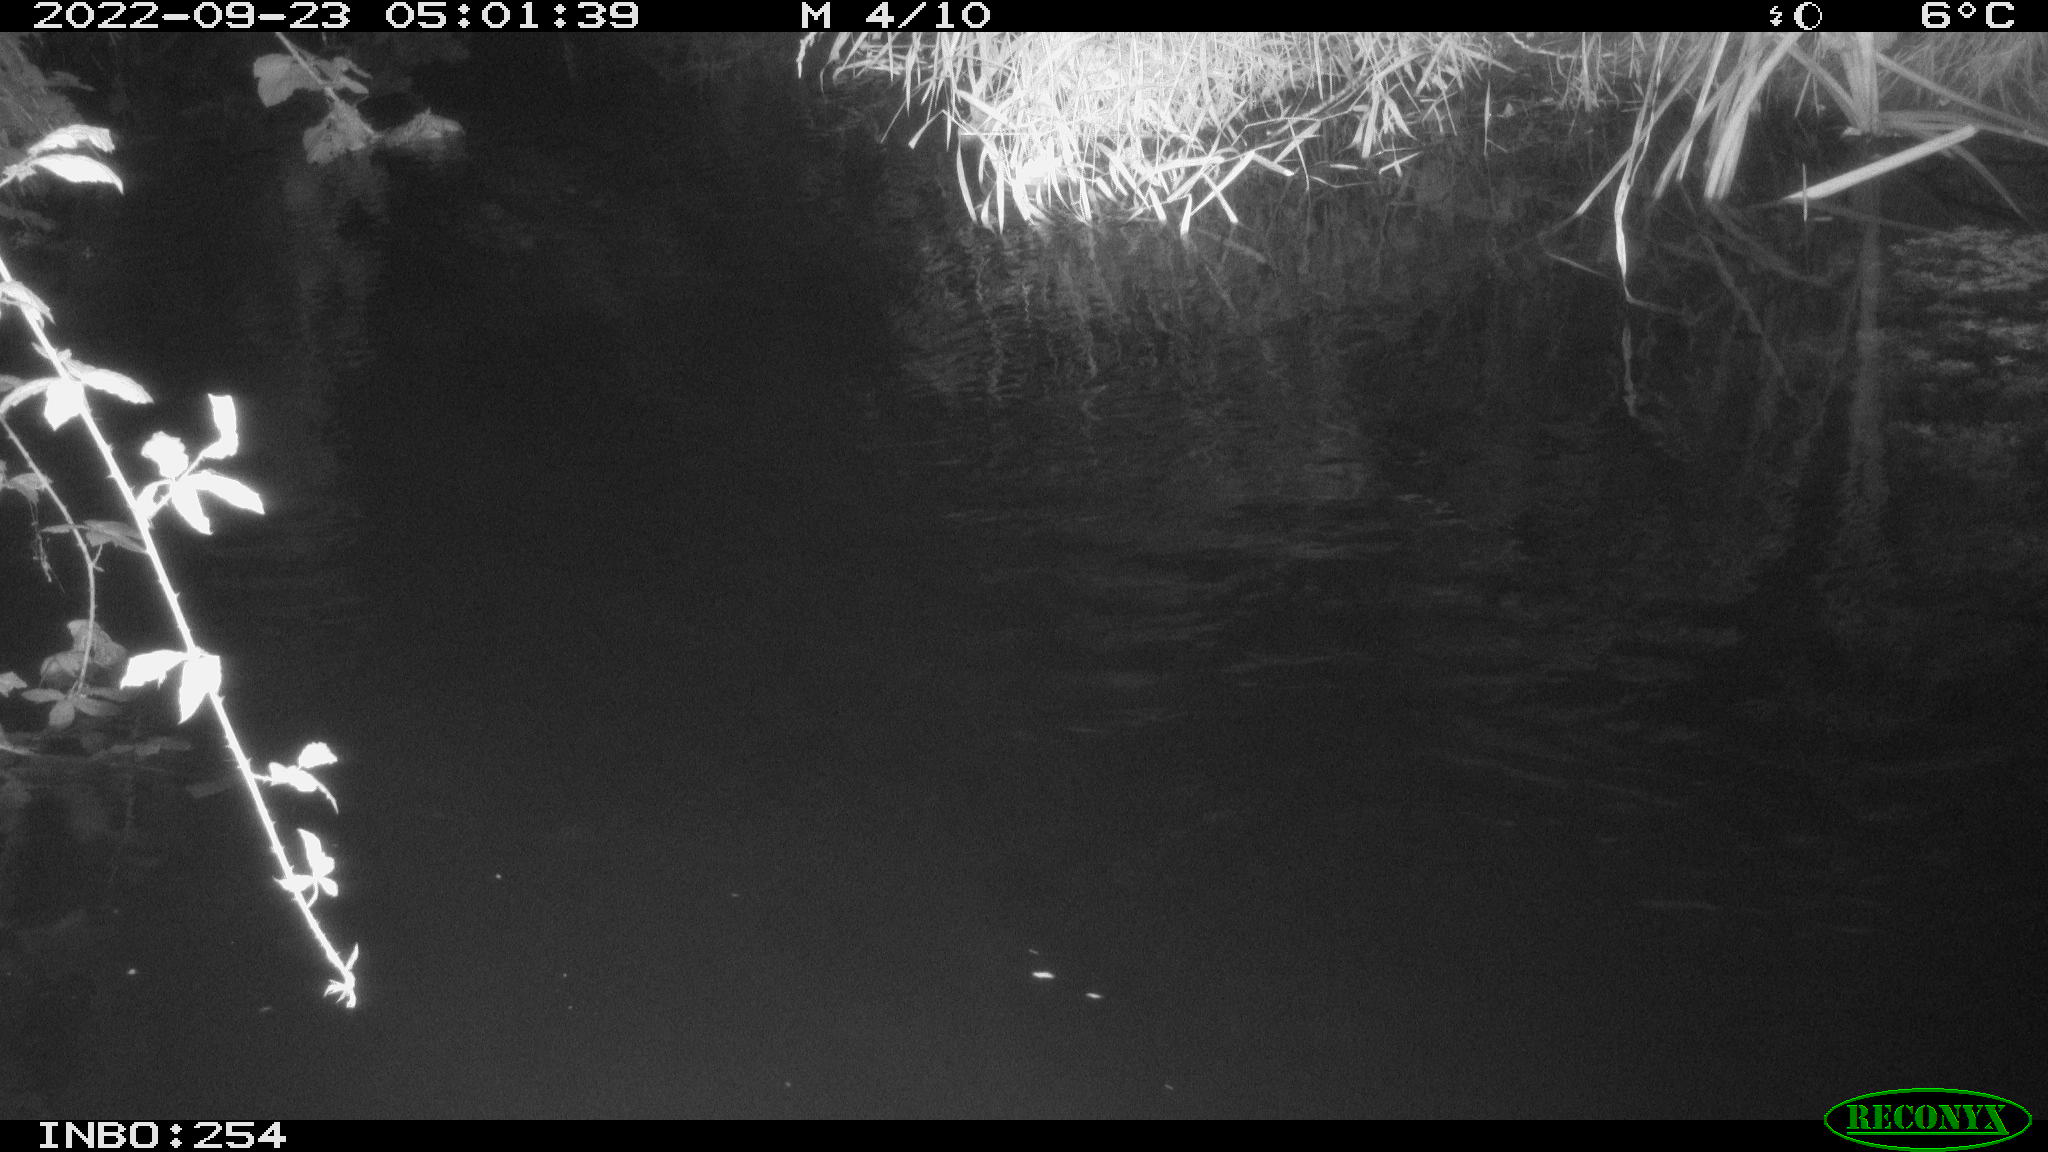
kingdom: Animalia
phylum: Chordata
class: Mammalia
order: Rodentia
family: Muridae
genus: Rattus
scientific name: Rattus norvegicus
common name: Brown rat
